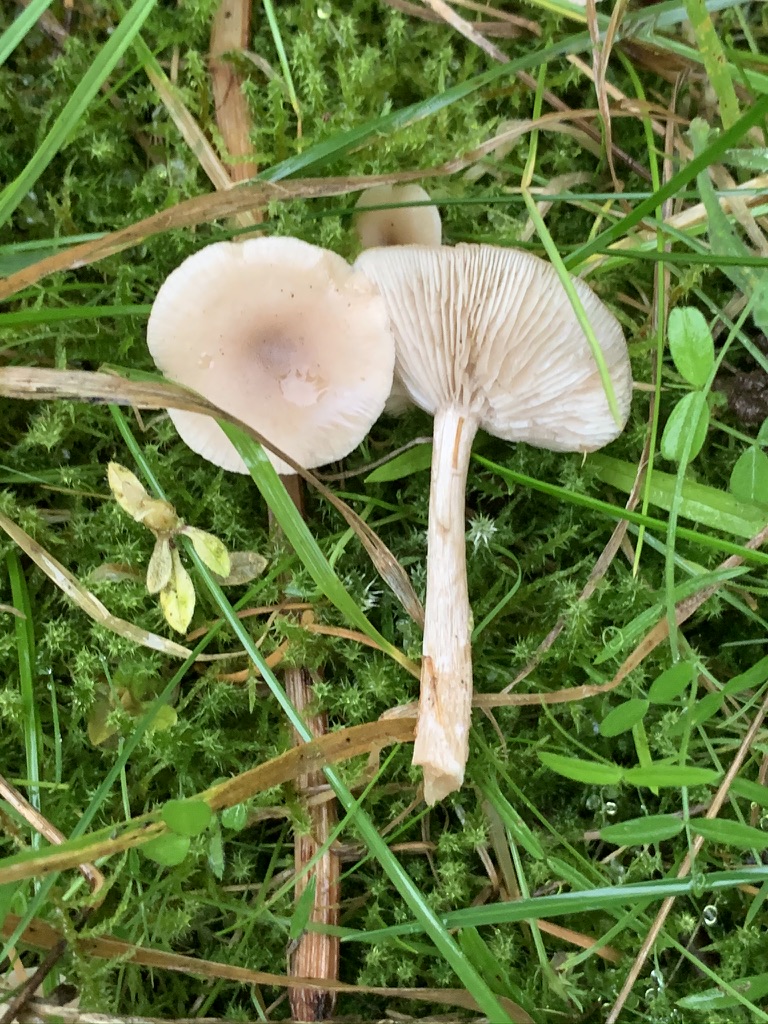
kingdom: Fungi
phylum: Basidiomycota
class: Agaricomycetes
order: Agaricales
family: Tricholomataceae
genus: Clitocybe
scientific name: Clitocybe fragrans
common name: vellugtende tragthat
